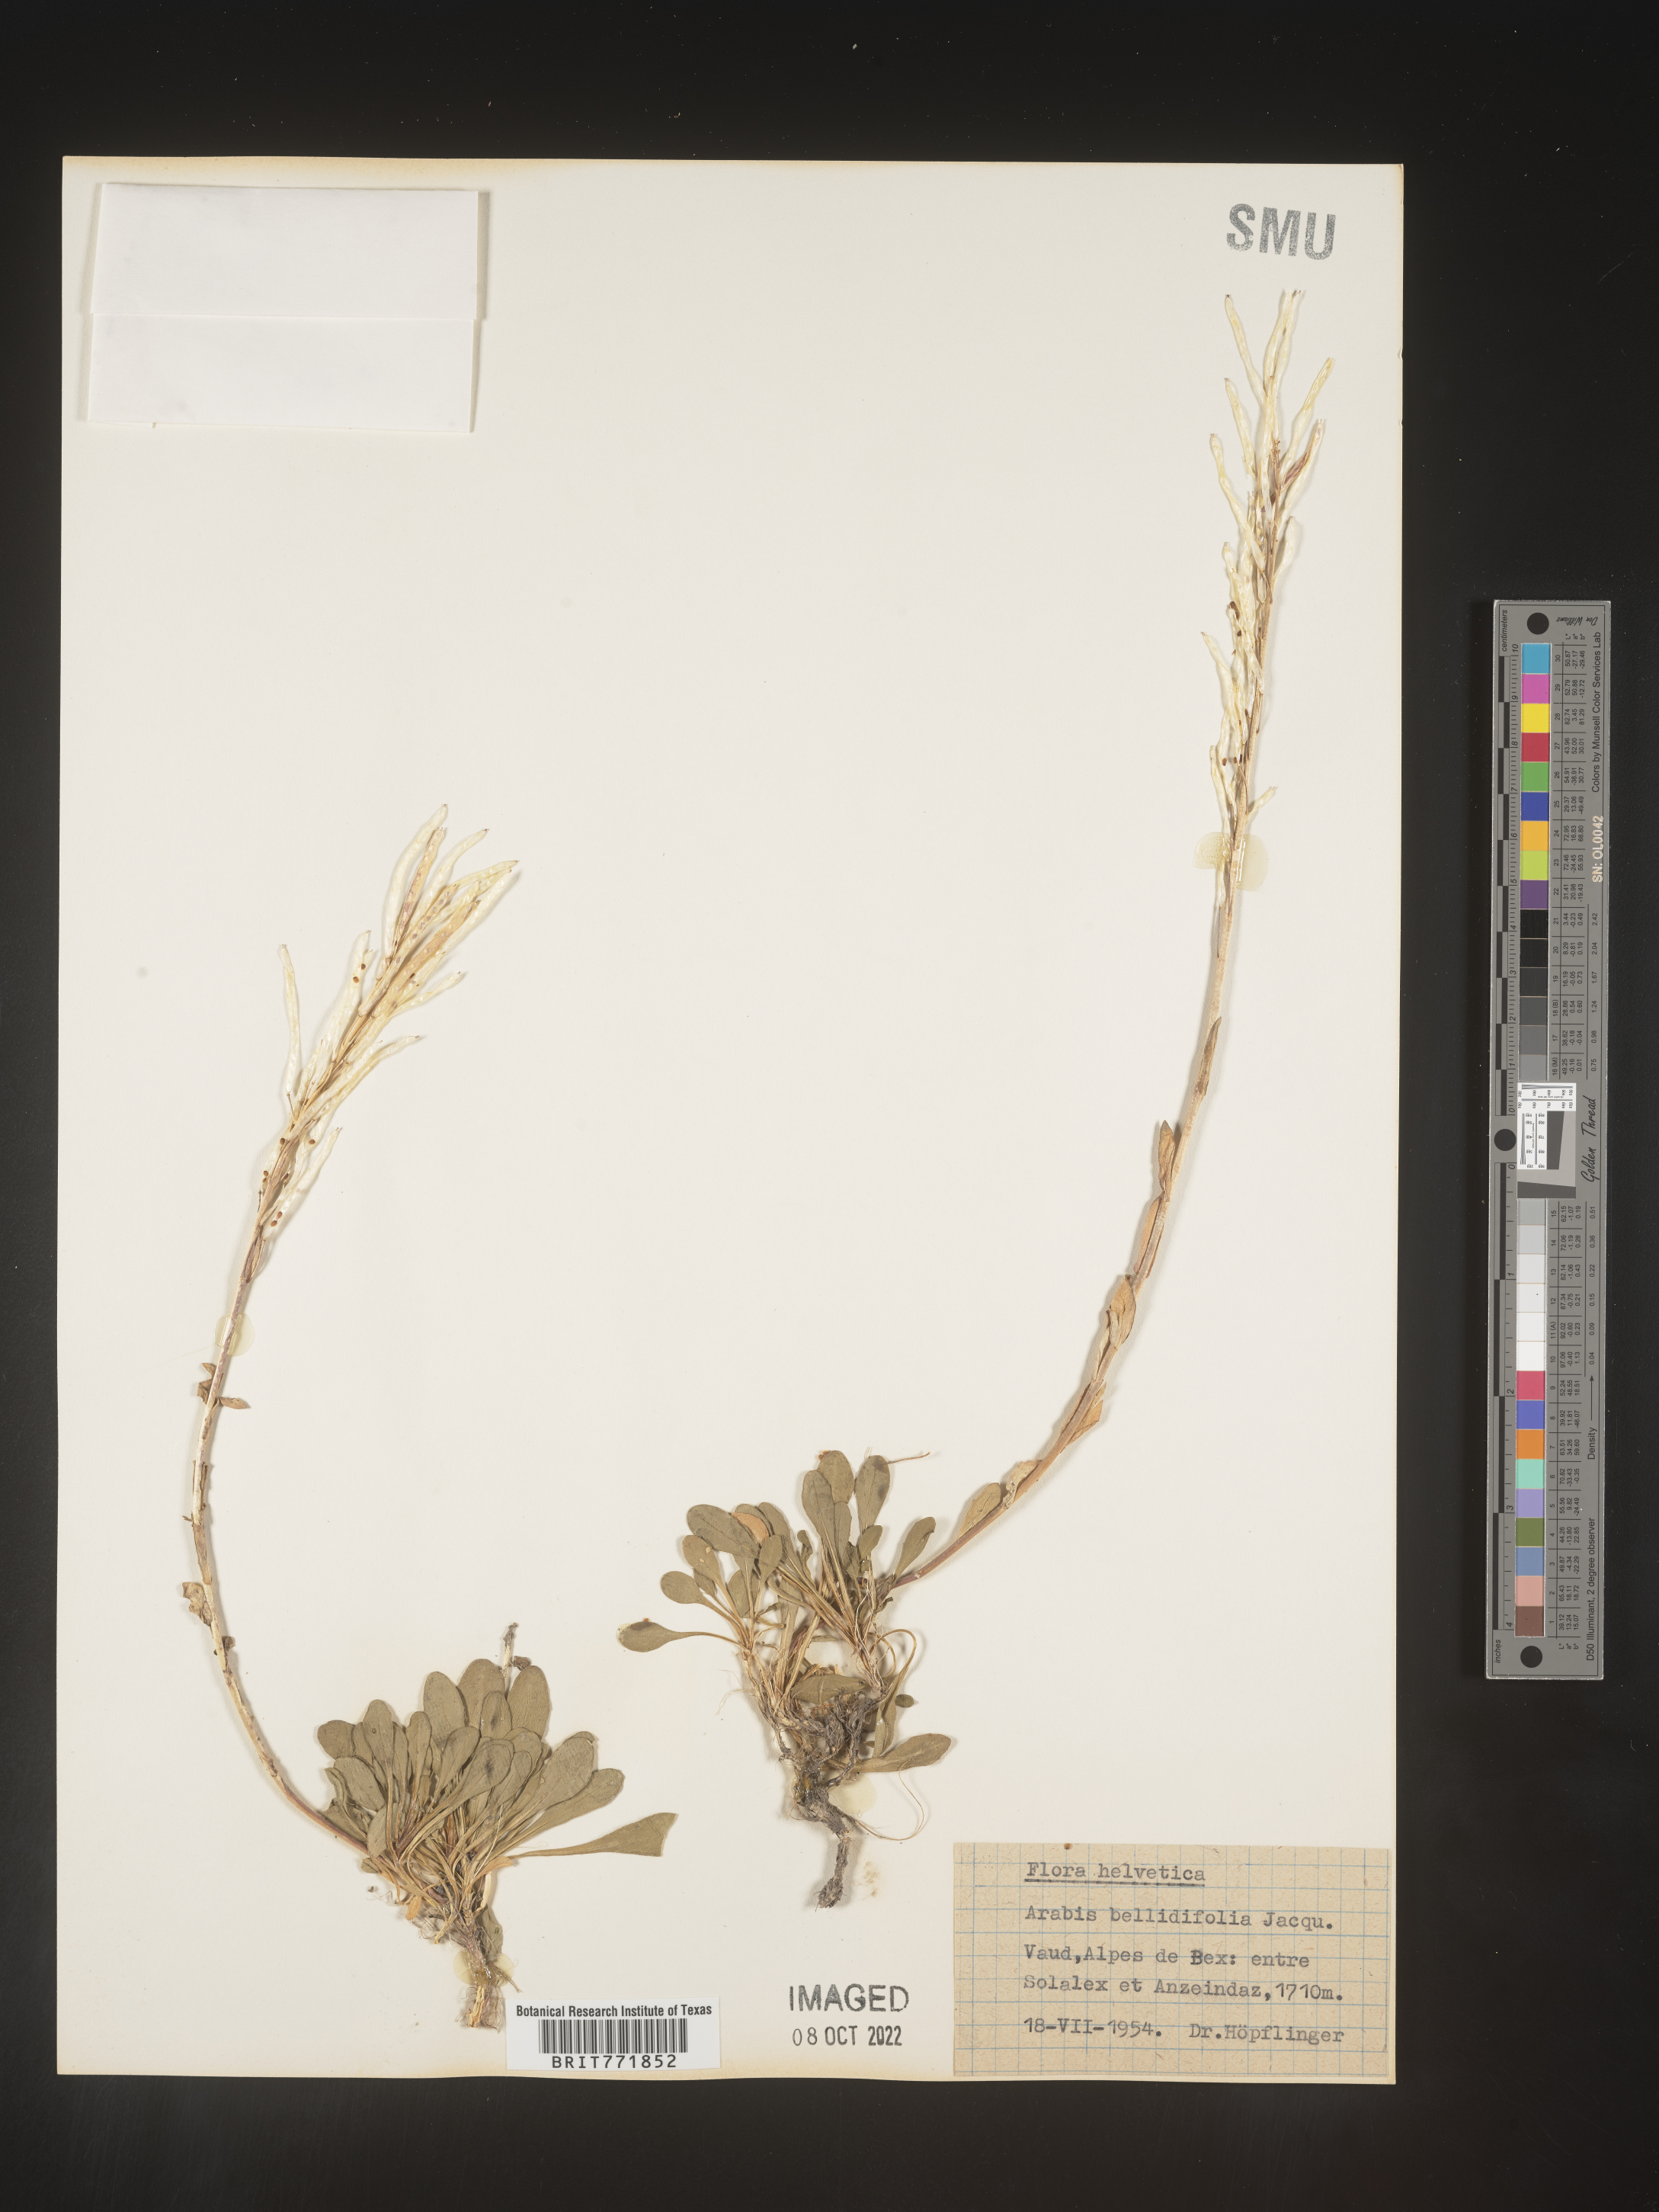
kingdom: Plantae
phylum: Tracheophyta
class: Magnoliopsida
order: Brassicales
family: Brassicaceae
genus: Arabis
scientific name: Arabis
